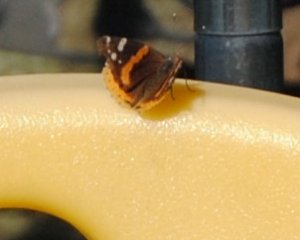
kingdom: Animalia
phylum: Arthropoda
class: Insecta
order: Lepidoptera
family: Nymphalidae
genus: Vanessa
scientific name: Vanessa atalanta
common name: Red Admiral
